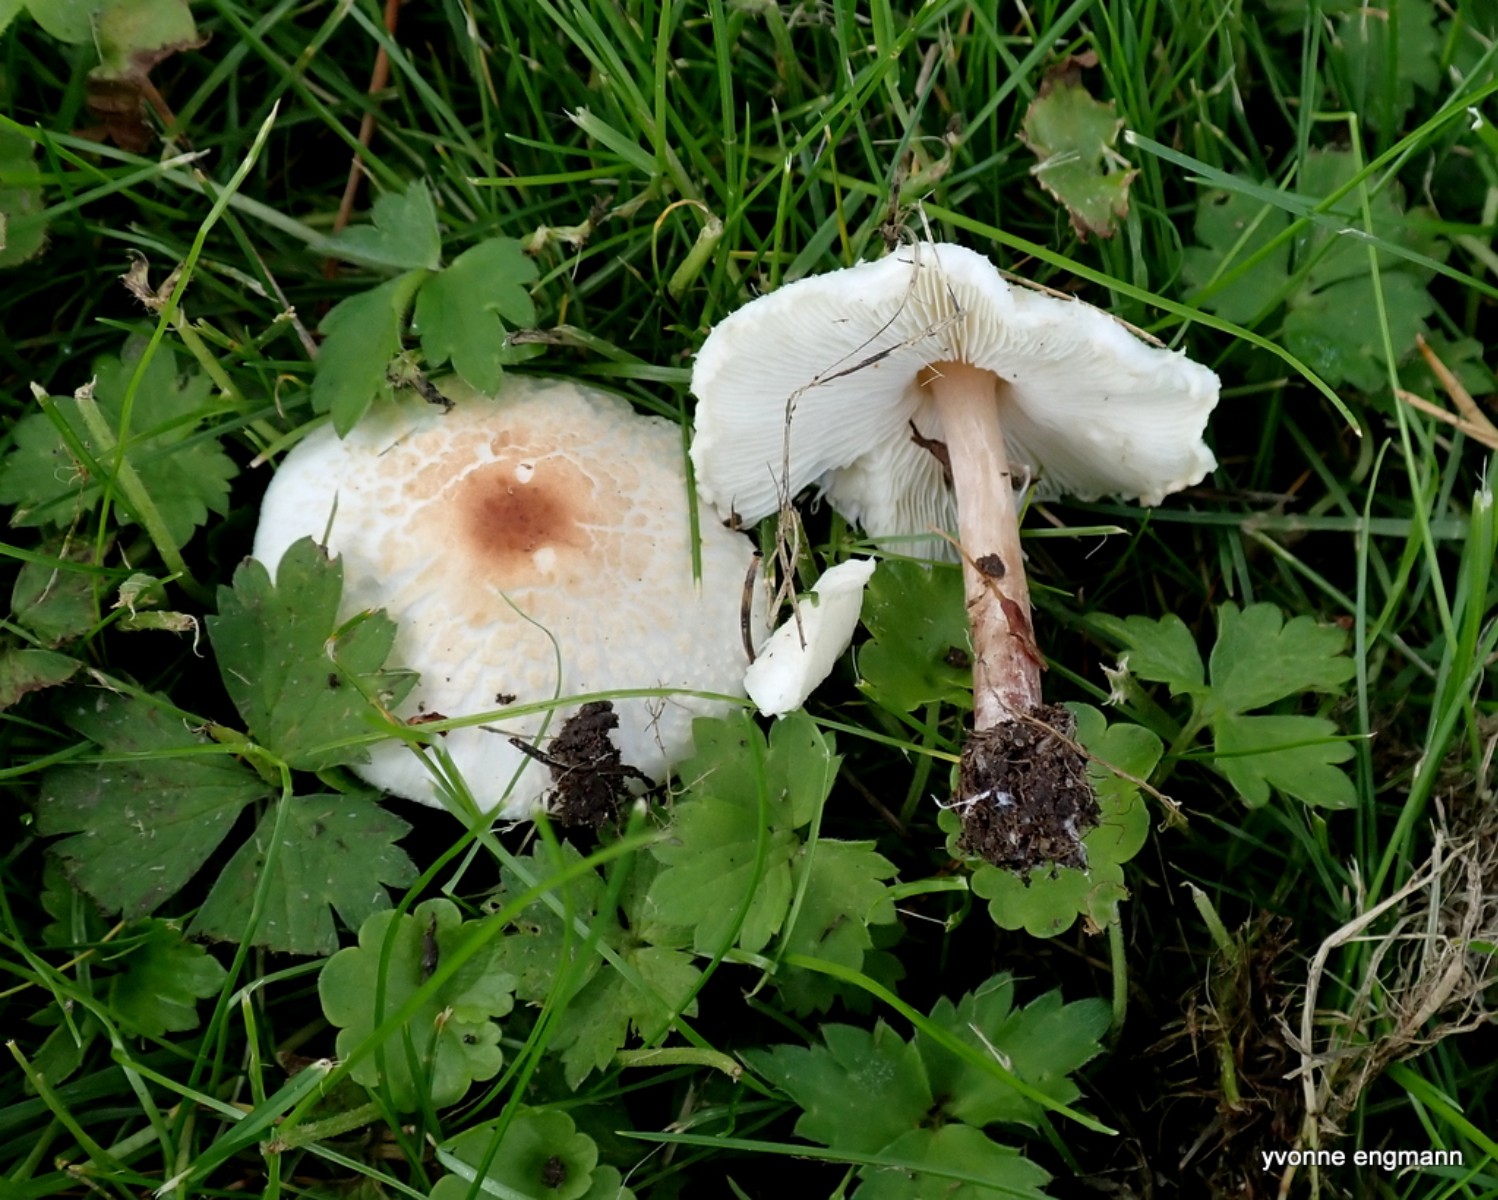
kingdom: Fungi
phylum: Basidiomycota
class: Agaricomycetes
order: Agaricales
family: Agaricaceae
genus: Lepiota
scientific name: Lepiota cristata
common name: stinkende parasolhat
